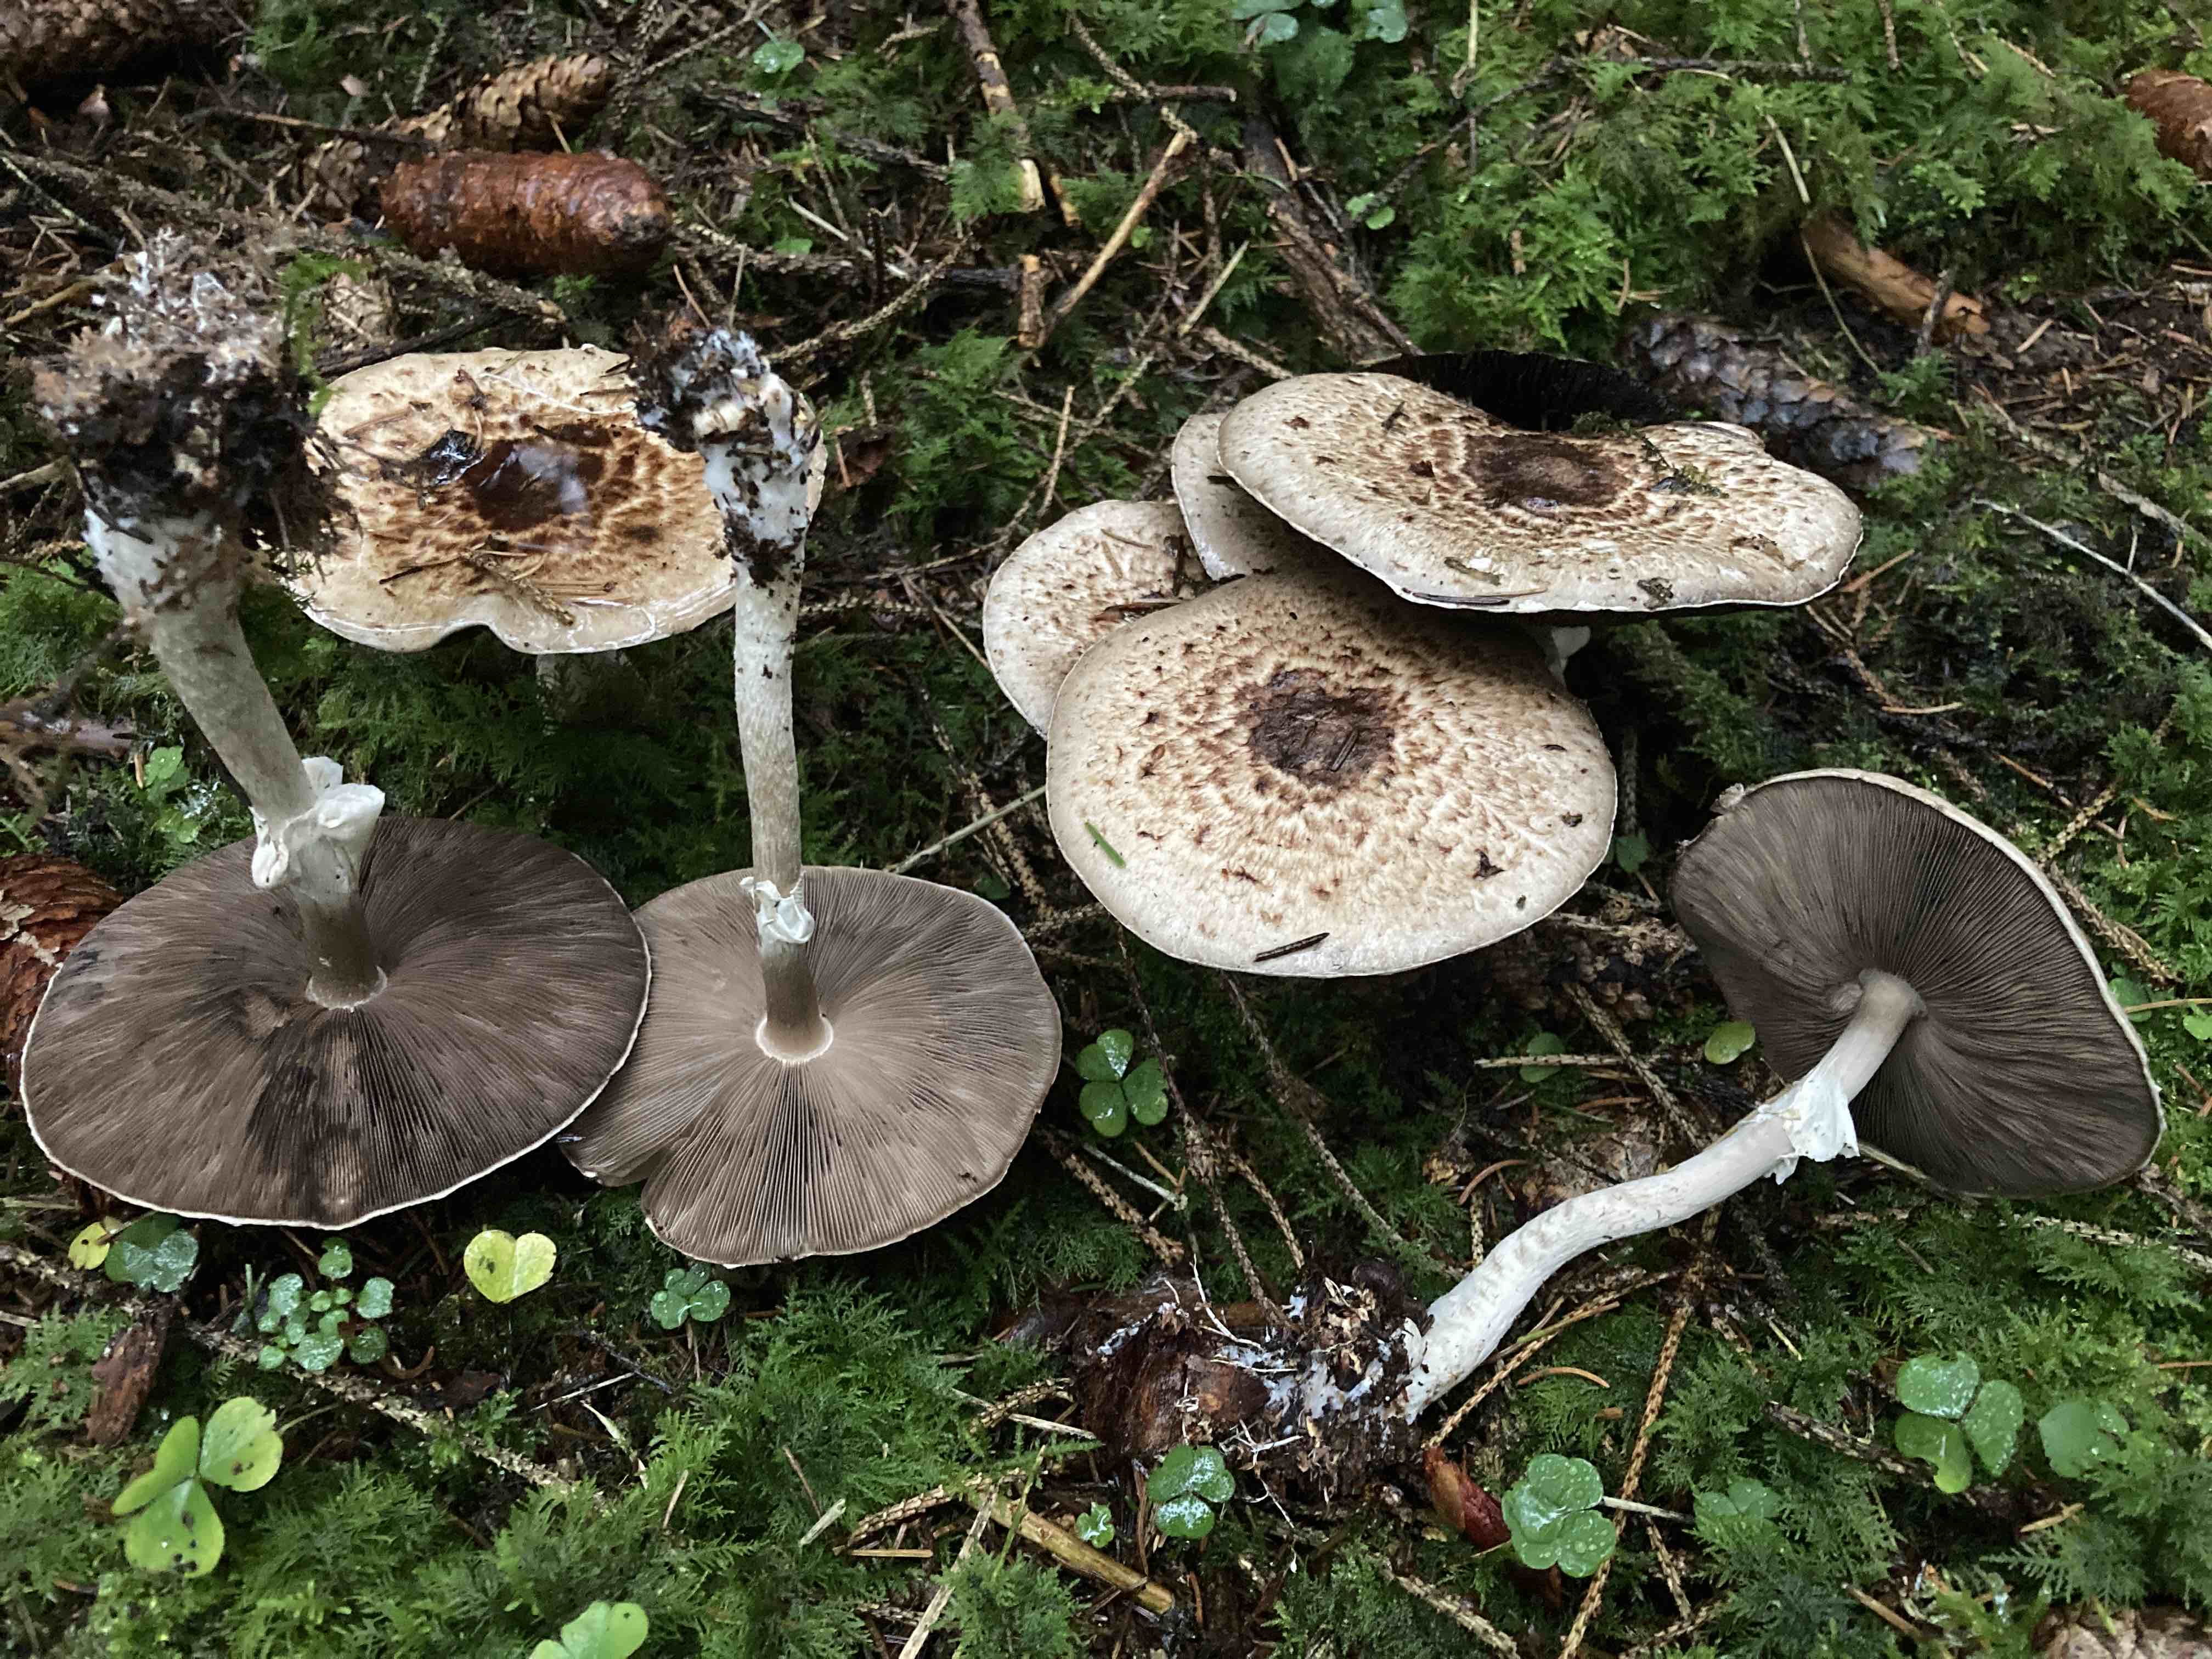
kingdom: Fungi
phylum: Basidiomycota
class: Agaricomycetes
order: Agaricales
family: Agaricaceae
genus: Agaricus
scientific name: Agaricus impudicus
